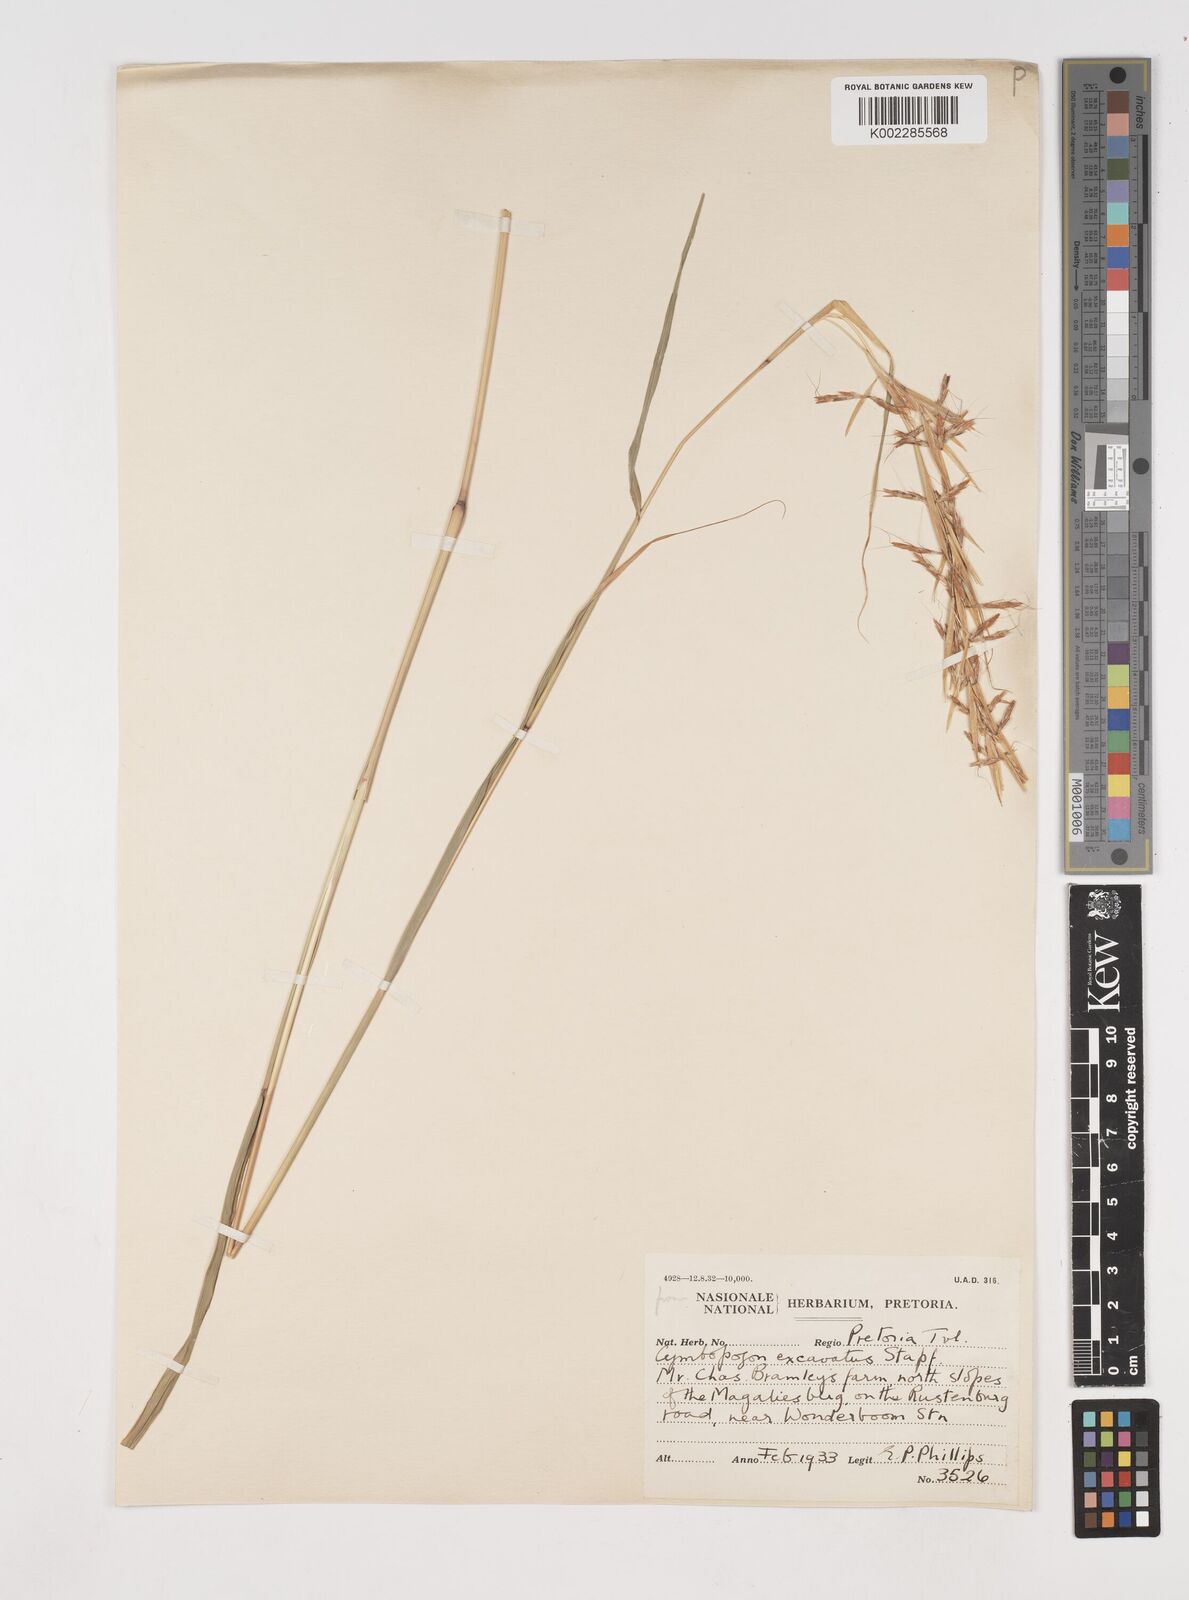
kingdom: Plantae
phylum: Tracheophyta
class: Liliopsida
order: Poales
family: Poaceae
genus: Cymbopogon
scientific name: Cymbopogon caesius
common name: Kachi grass
